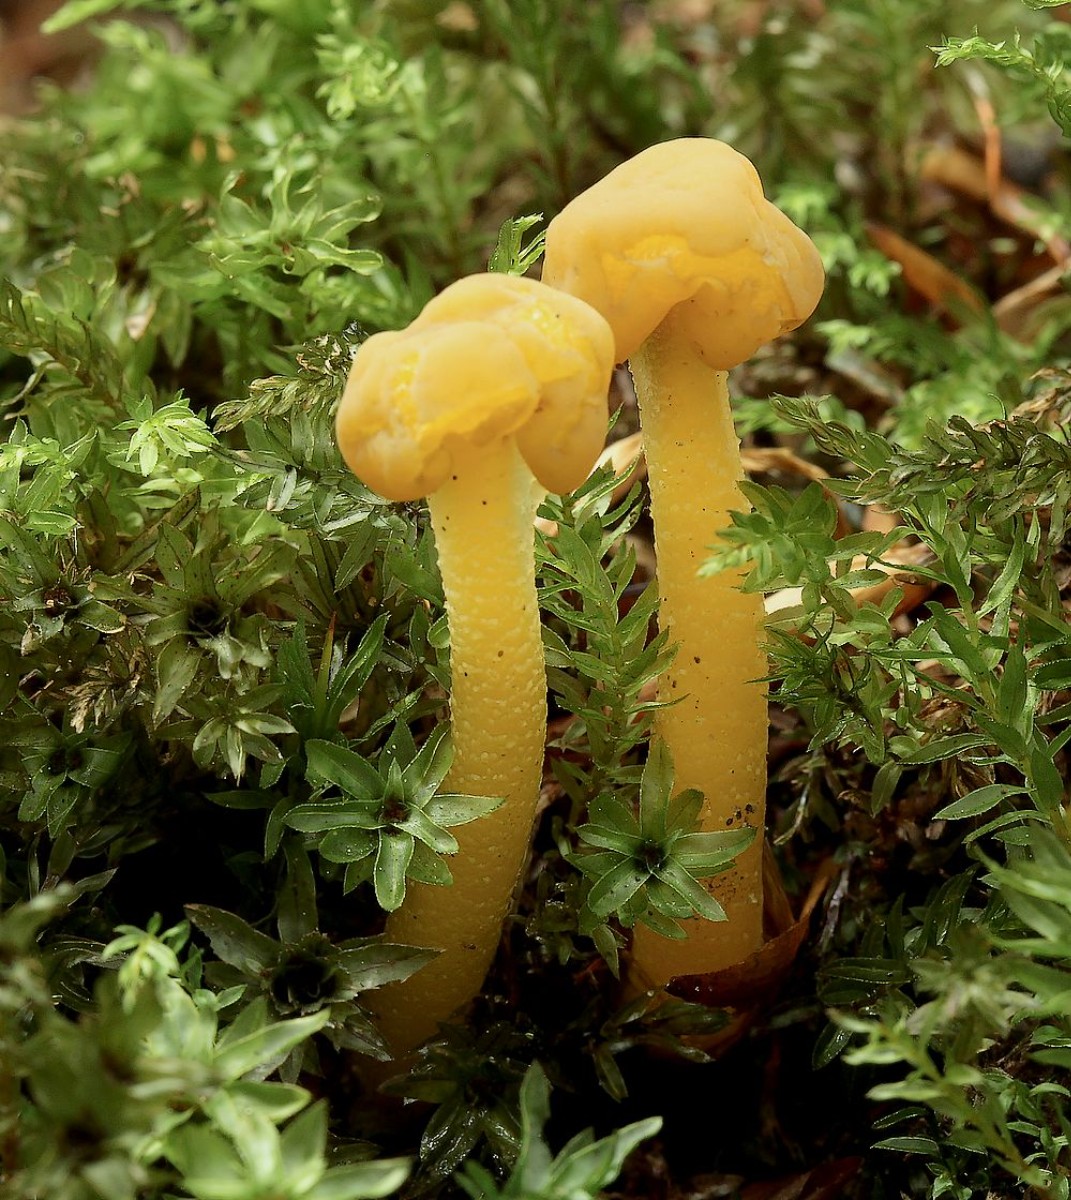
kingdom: Fungi
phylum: Ascomycota
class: Leotiomycetes
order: Leotiales
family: Leotiaceae
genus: Leotia
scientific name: Leotia lubrica
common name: ravsvamp
